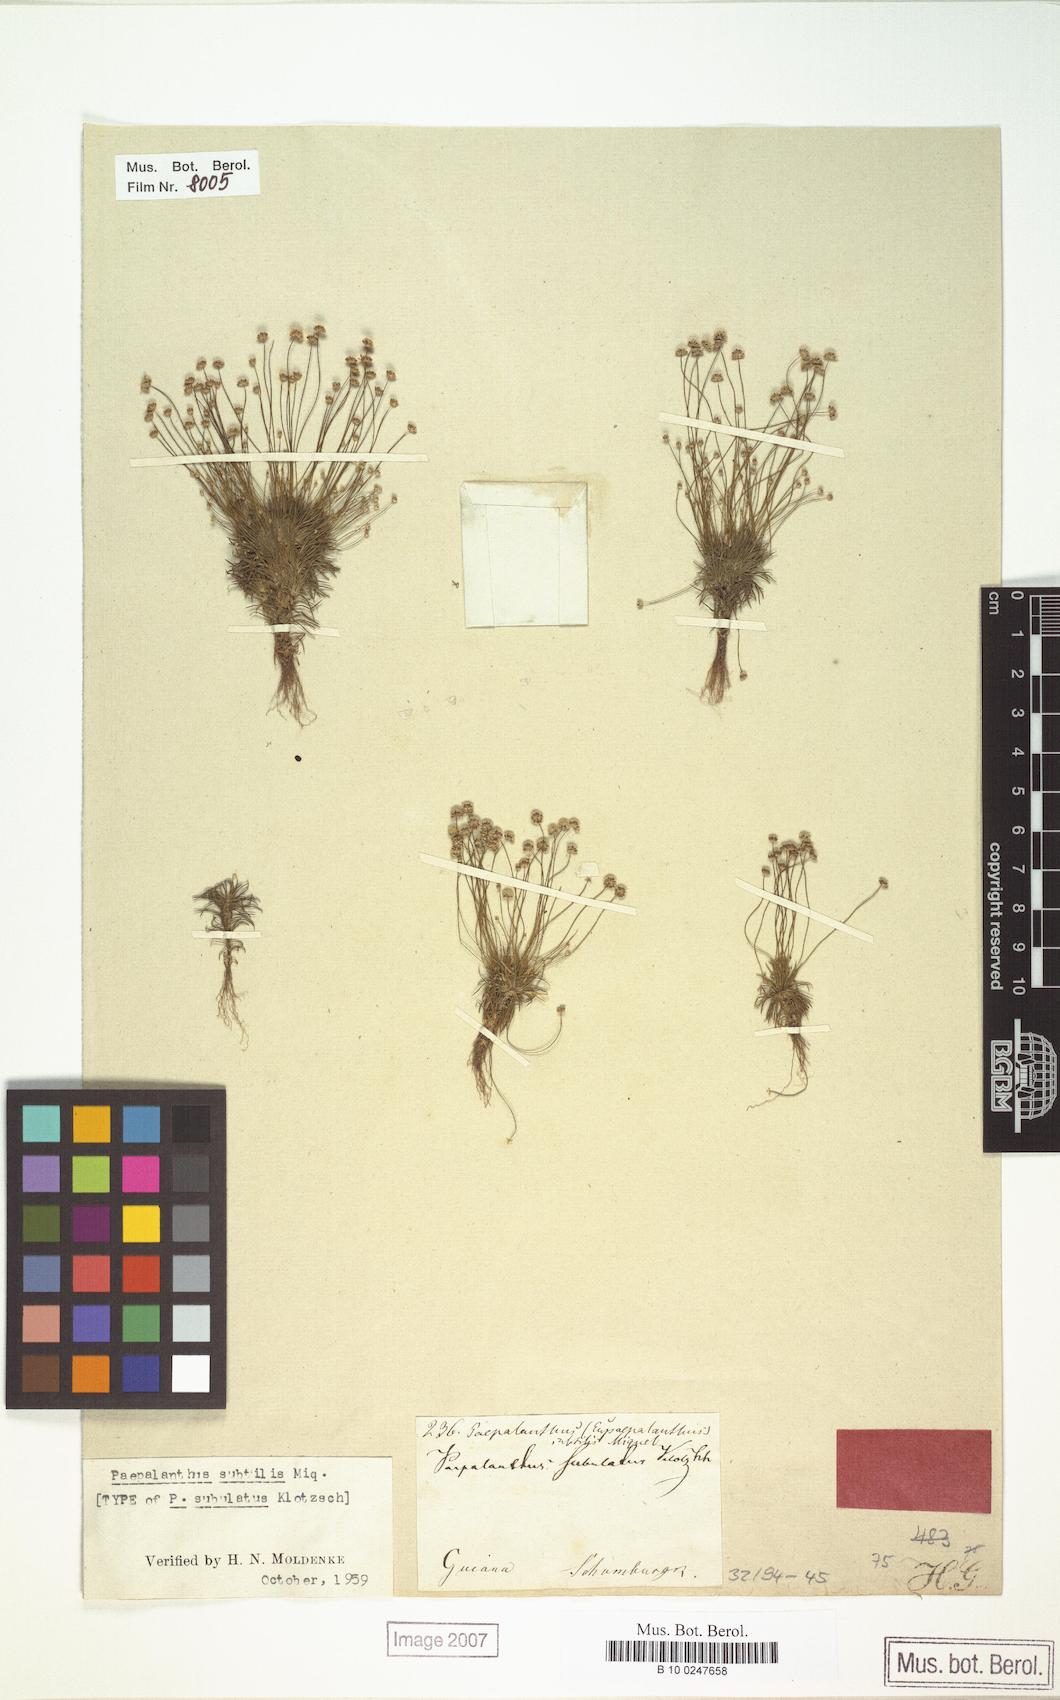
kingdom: Plantae
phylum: Tracheophyta
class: Liliopsida
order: Poales
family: Eriocaulaceae
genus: Paepalanthus
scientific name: Paepalanthus subtilis
